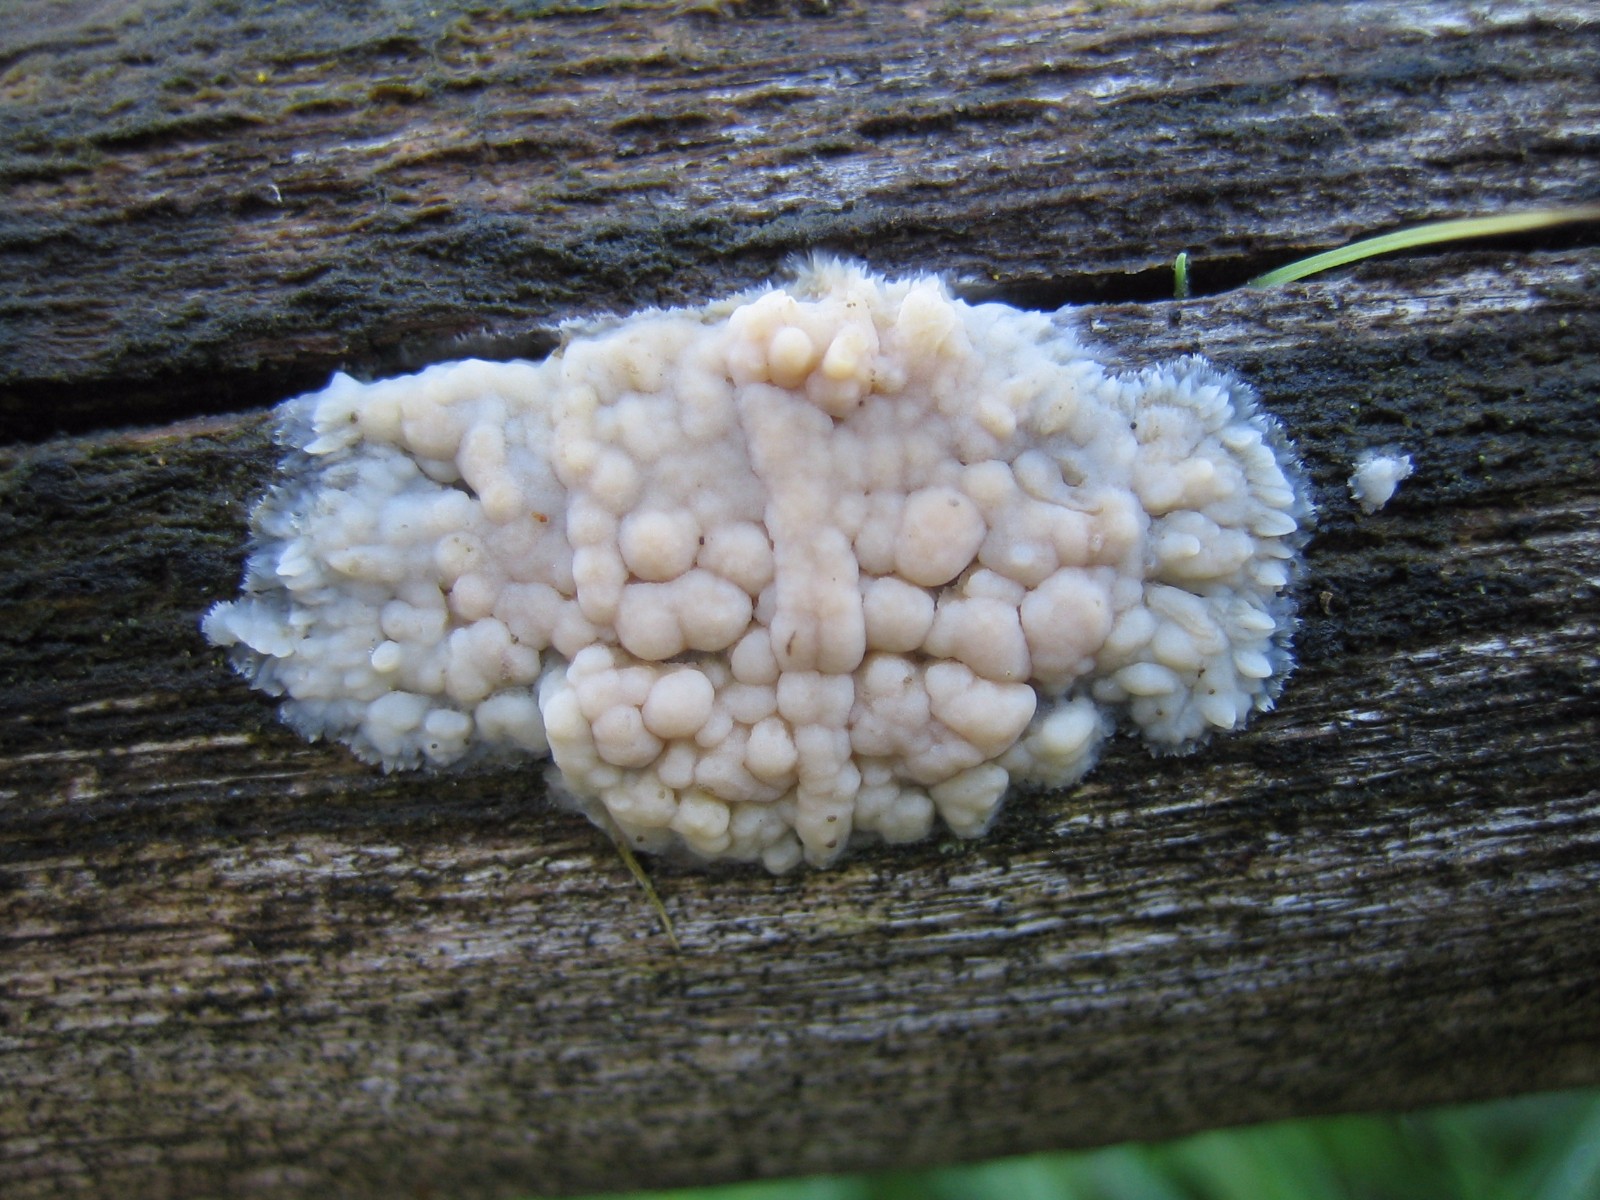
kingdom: Fungi
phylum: Basidiomycota
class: Agaricomycetes
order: Corticiales
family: Corticiaceae
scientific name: Corticiaceae
